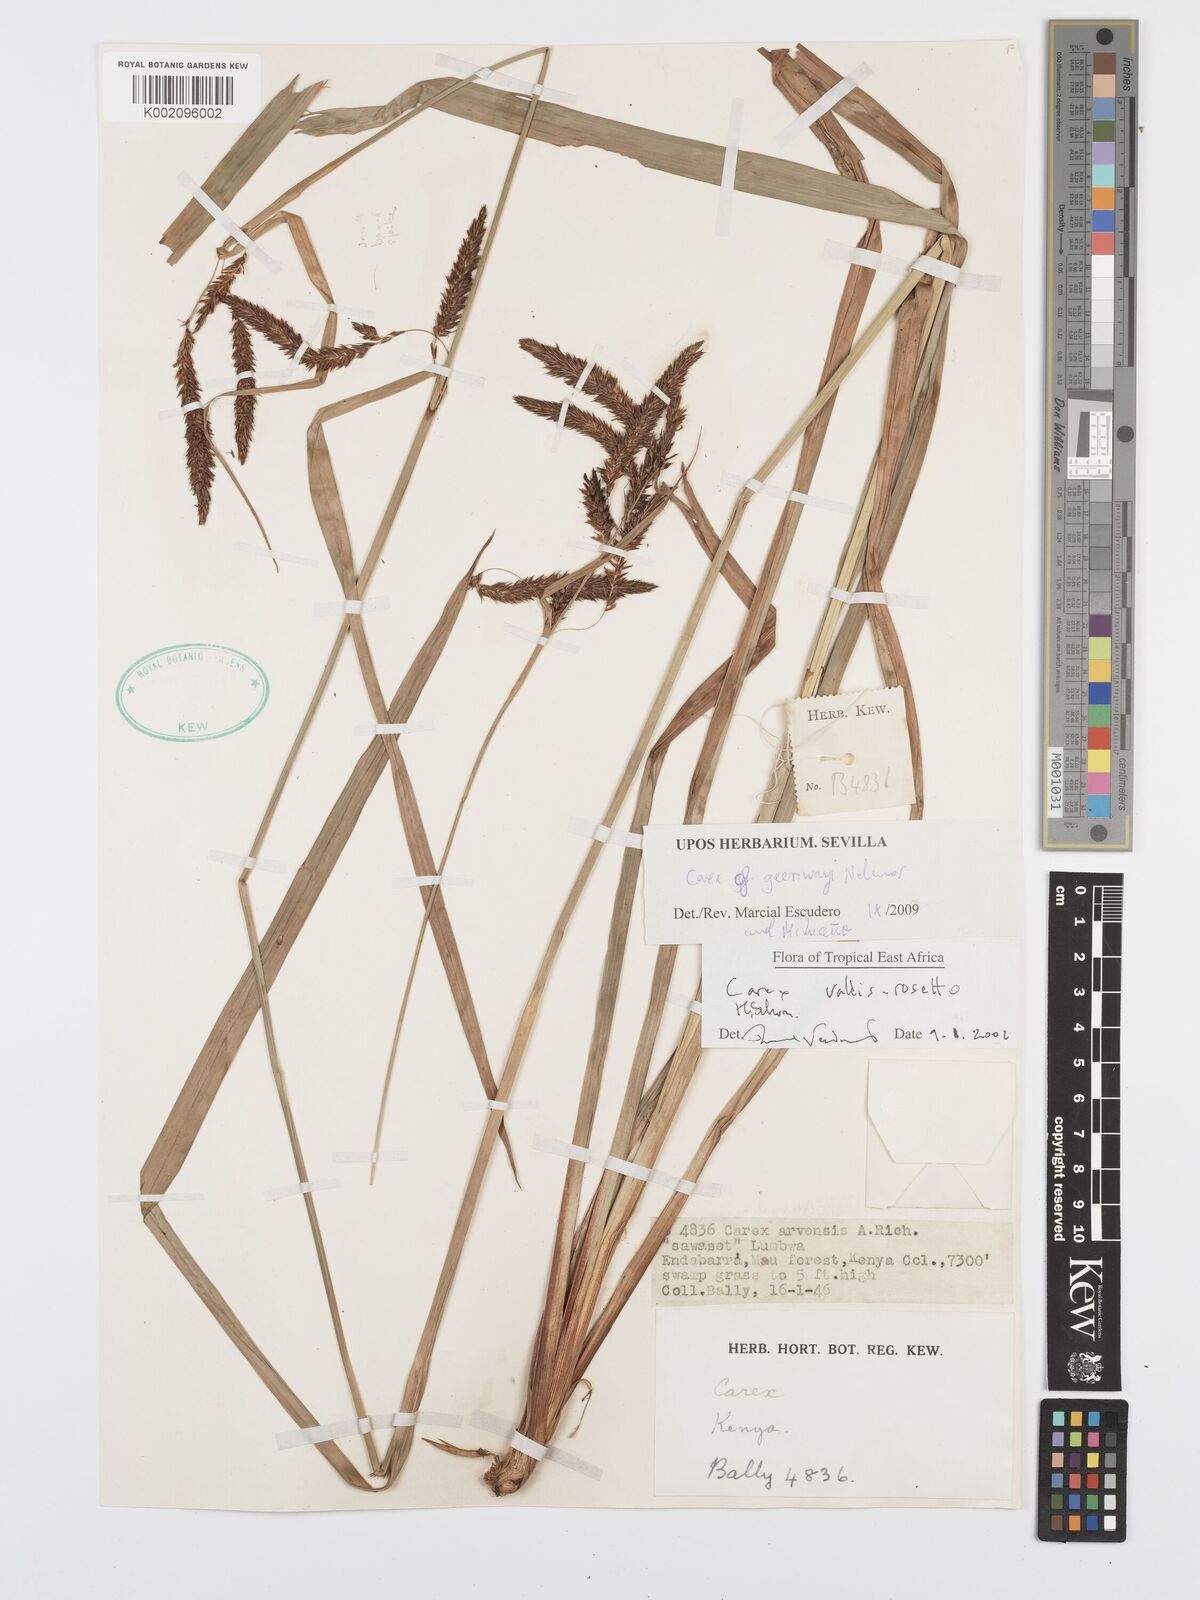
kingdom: Plantae
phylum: Tracheophyta
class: Liliopsida
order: Poales
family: Cyperaceae
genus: Carex
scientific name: Carex greenwayi
